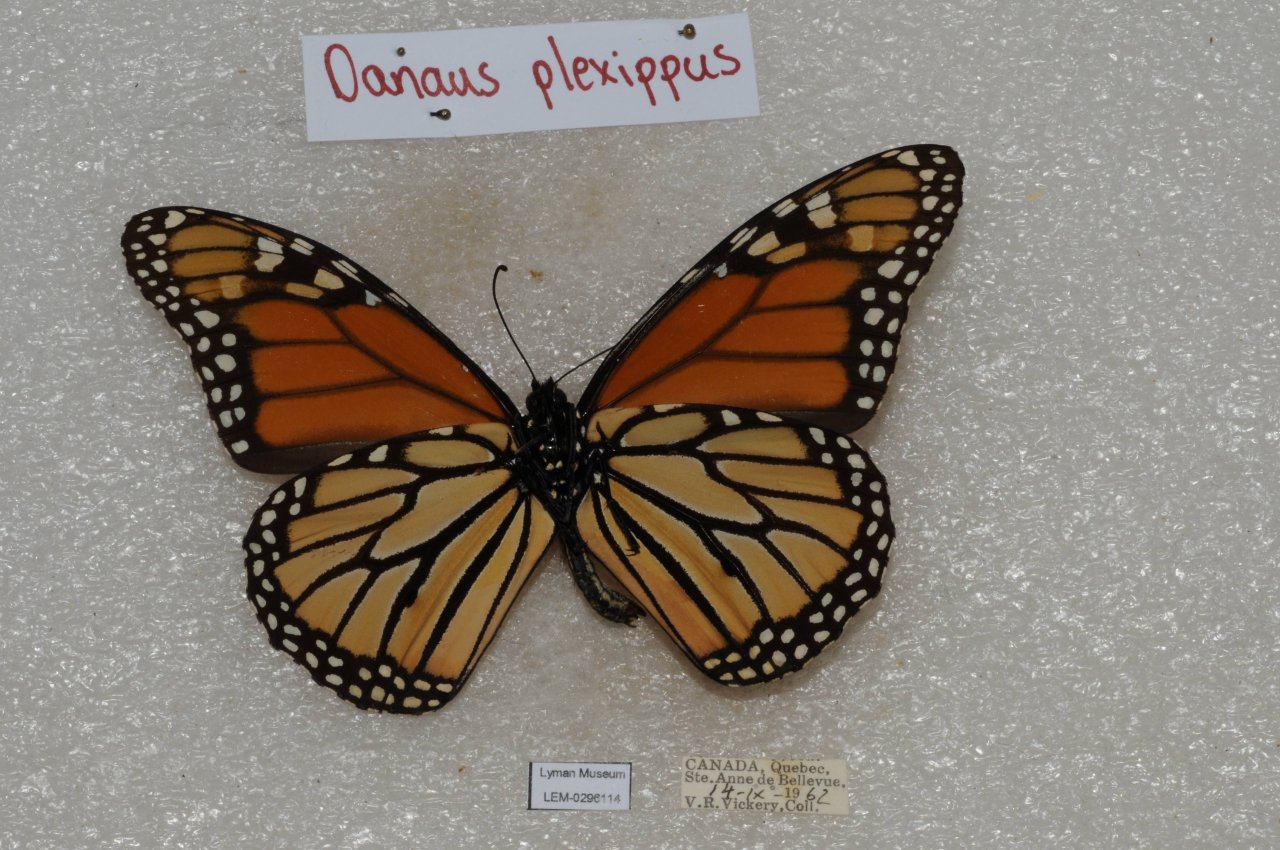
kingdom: Animalia
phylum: Arthropoda
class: Insecta
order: Lepidoptera
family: Nymphalidae
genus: Danaus
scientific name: Danaus plexippus
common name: Monarch
